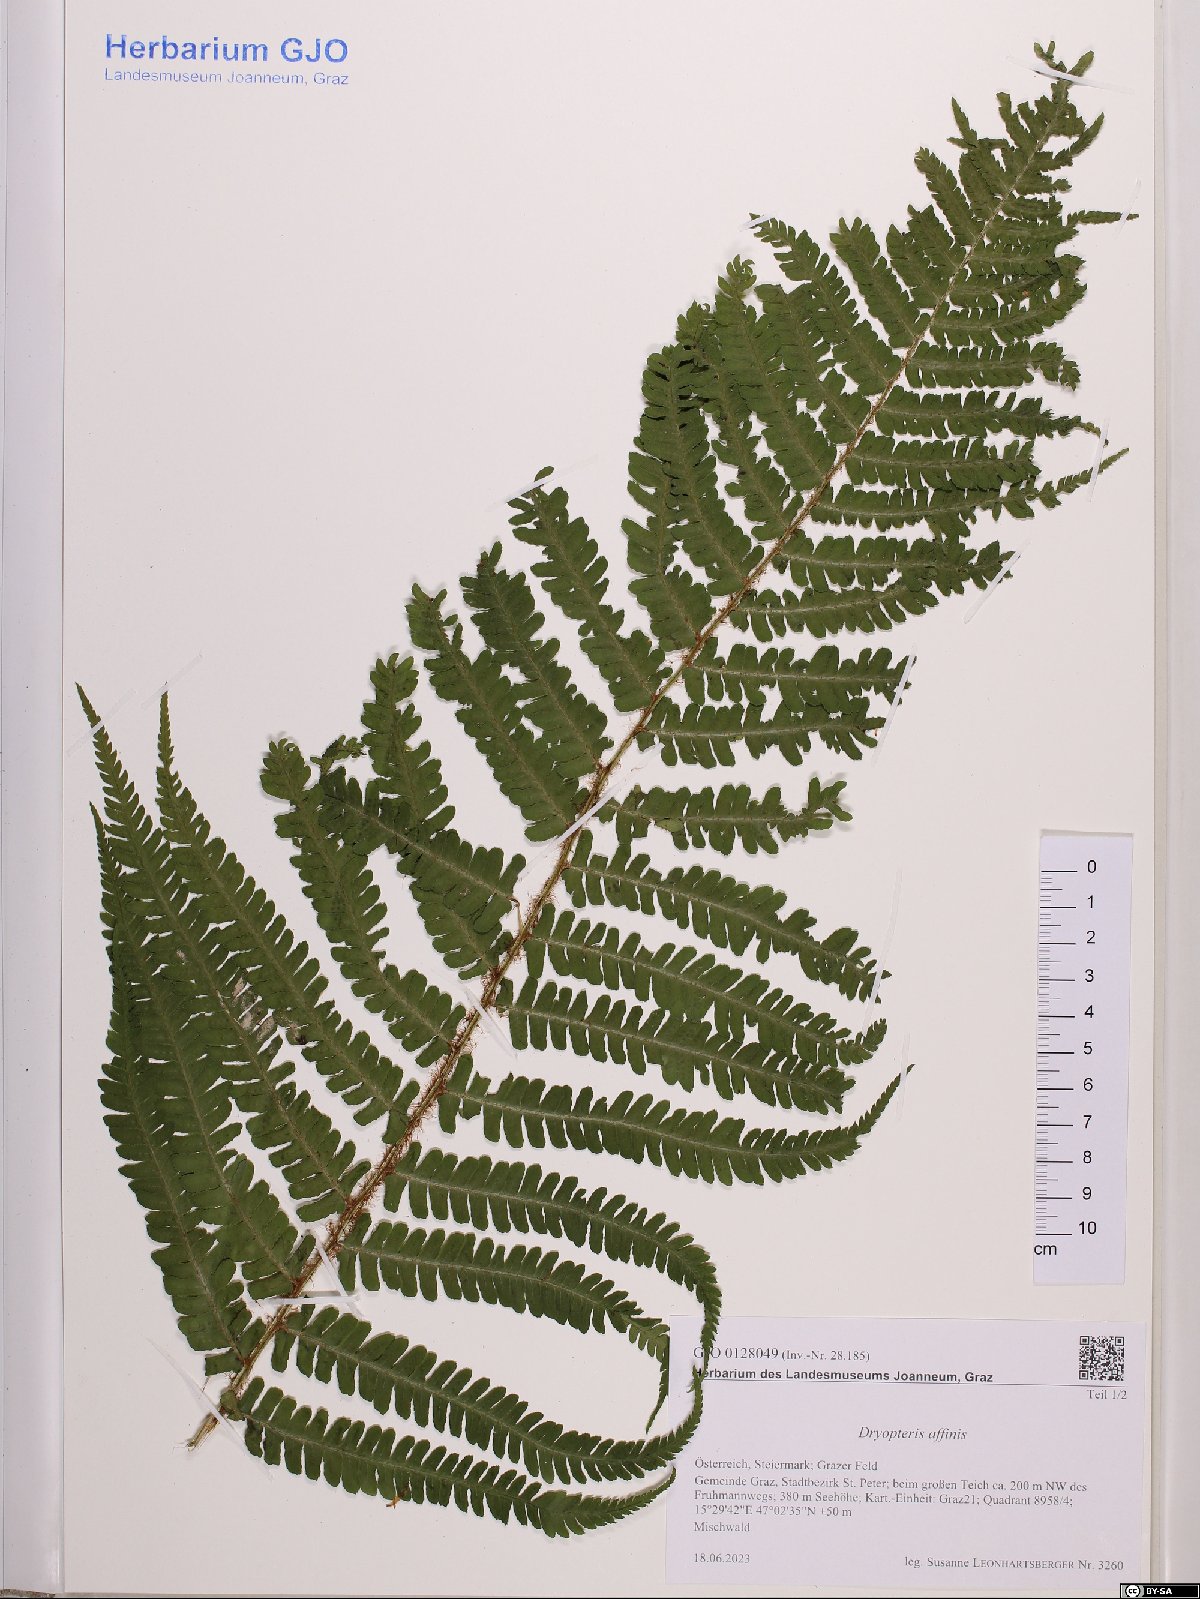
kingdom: Plantae
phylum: Tracheophyta
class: Polypodiopsida
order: Polypodiales
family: Dryopteridaceae
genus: Dryopteris
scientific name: Dryopteris affinis
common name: Scaly male fern
